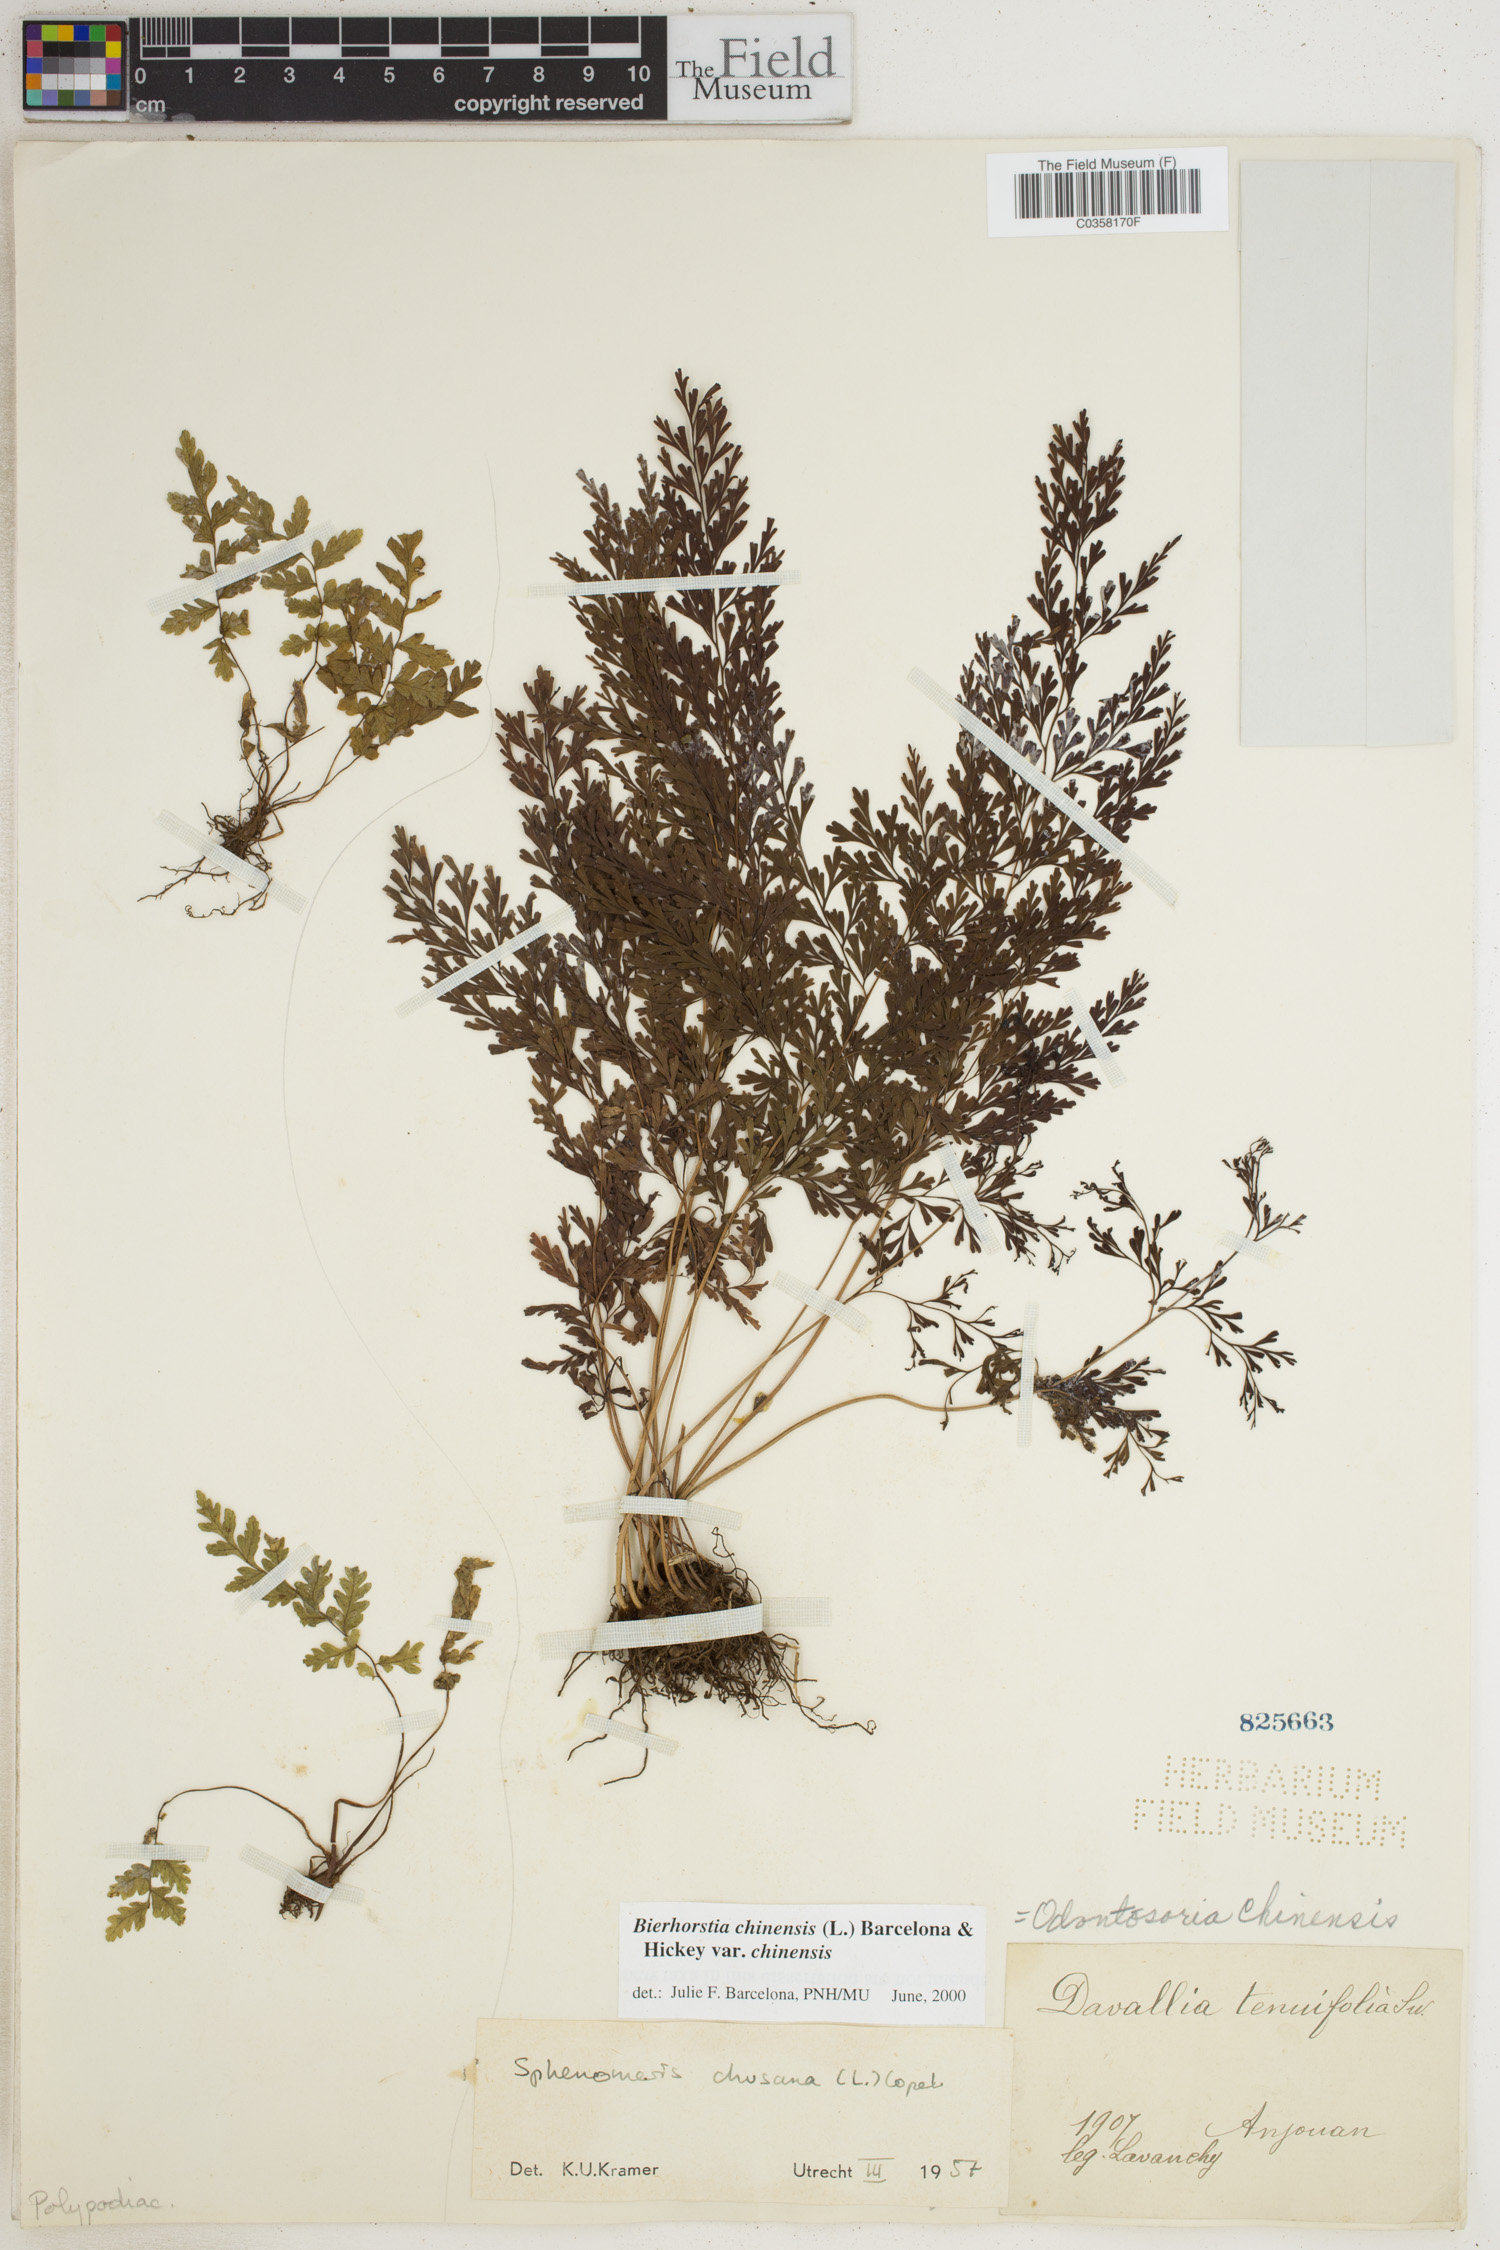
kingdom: Plantae
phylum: Tracheophyta
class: Polypodiopsida
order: Polypodiales
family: Lindsaeaceae
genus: Odontosoria
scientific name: Odontosoria chinensis
